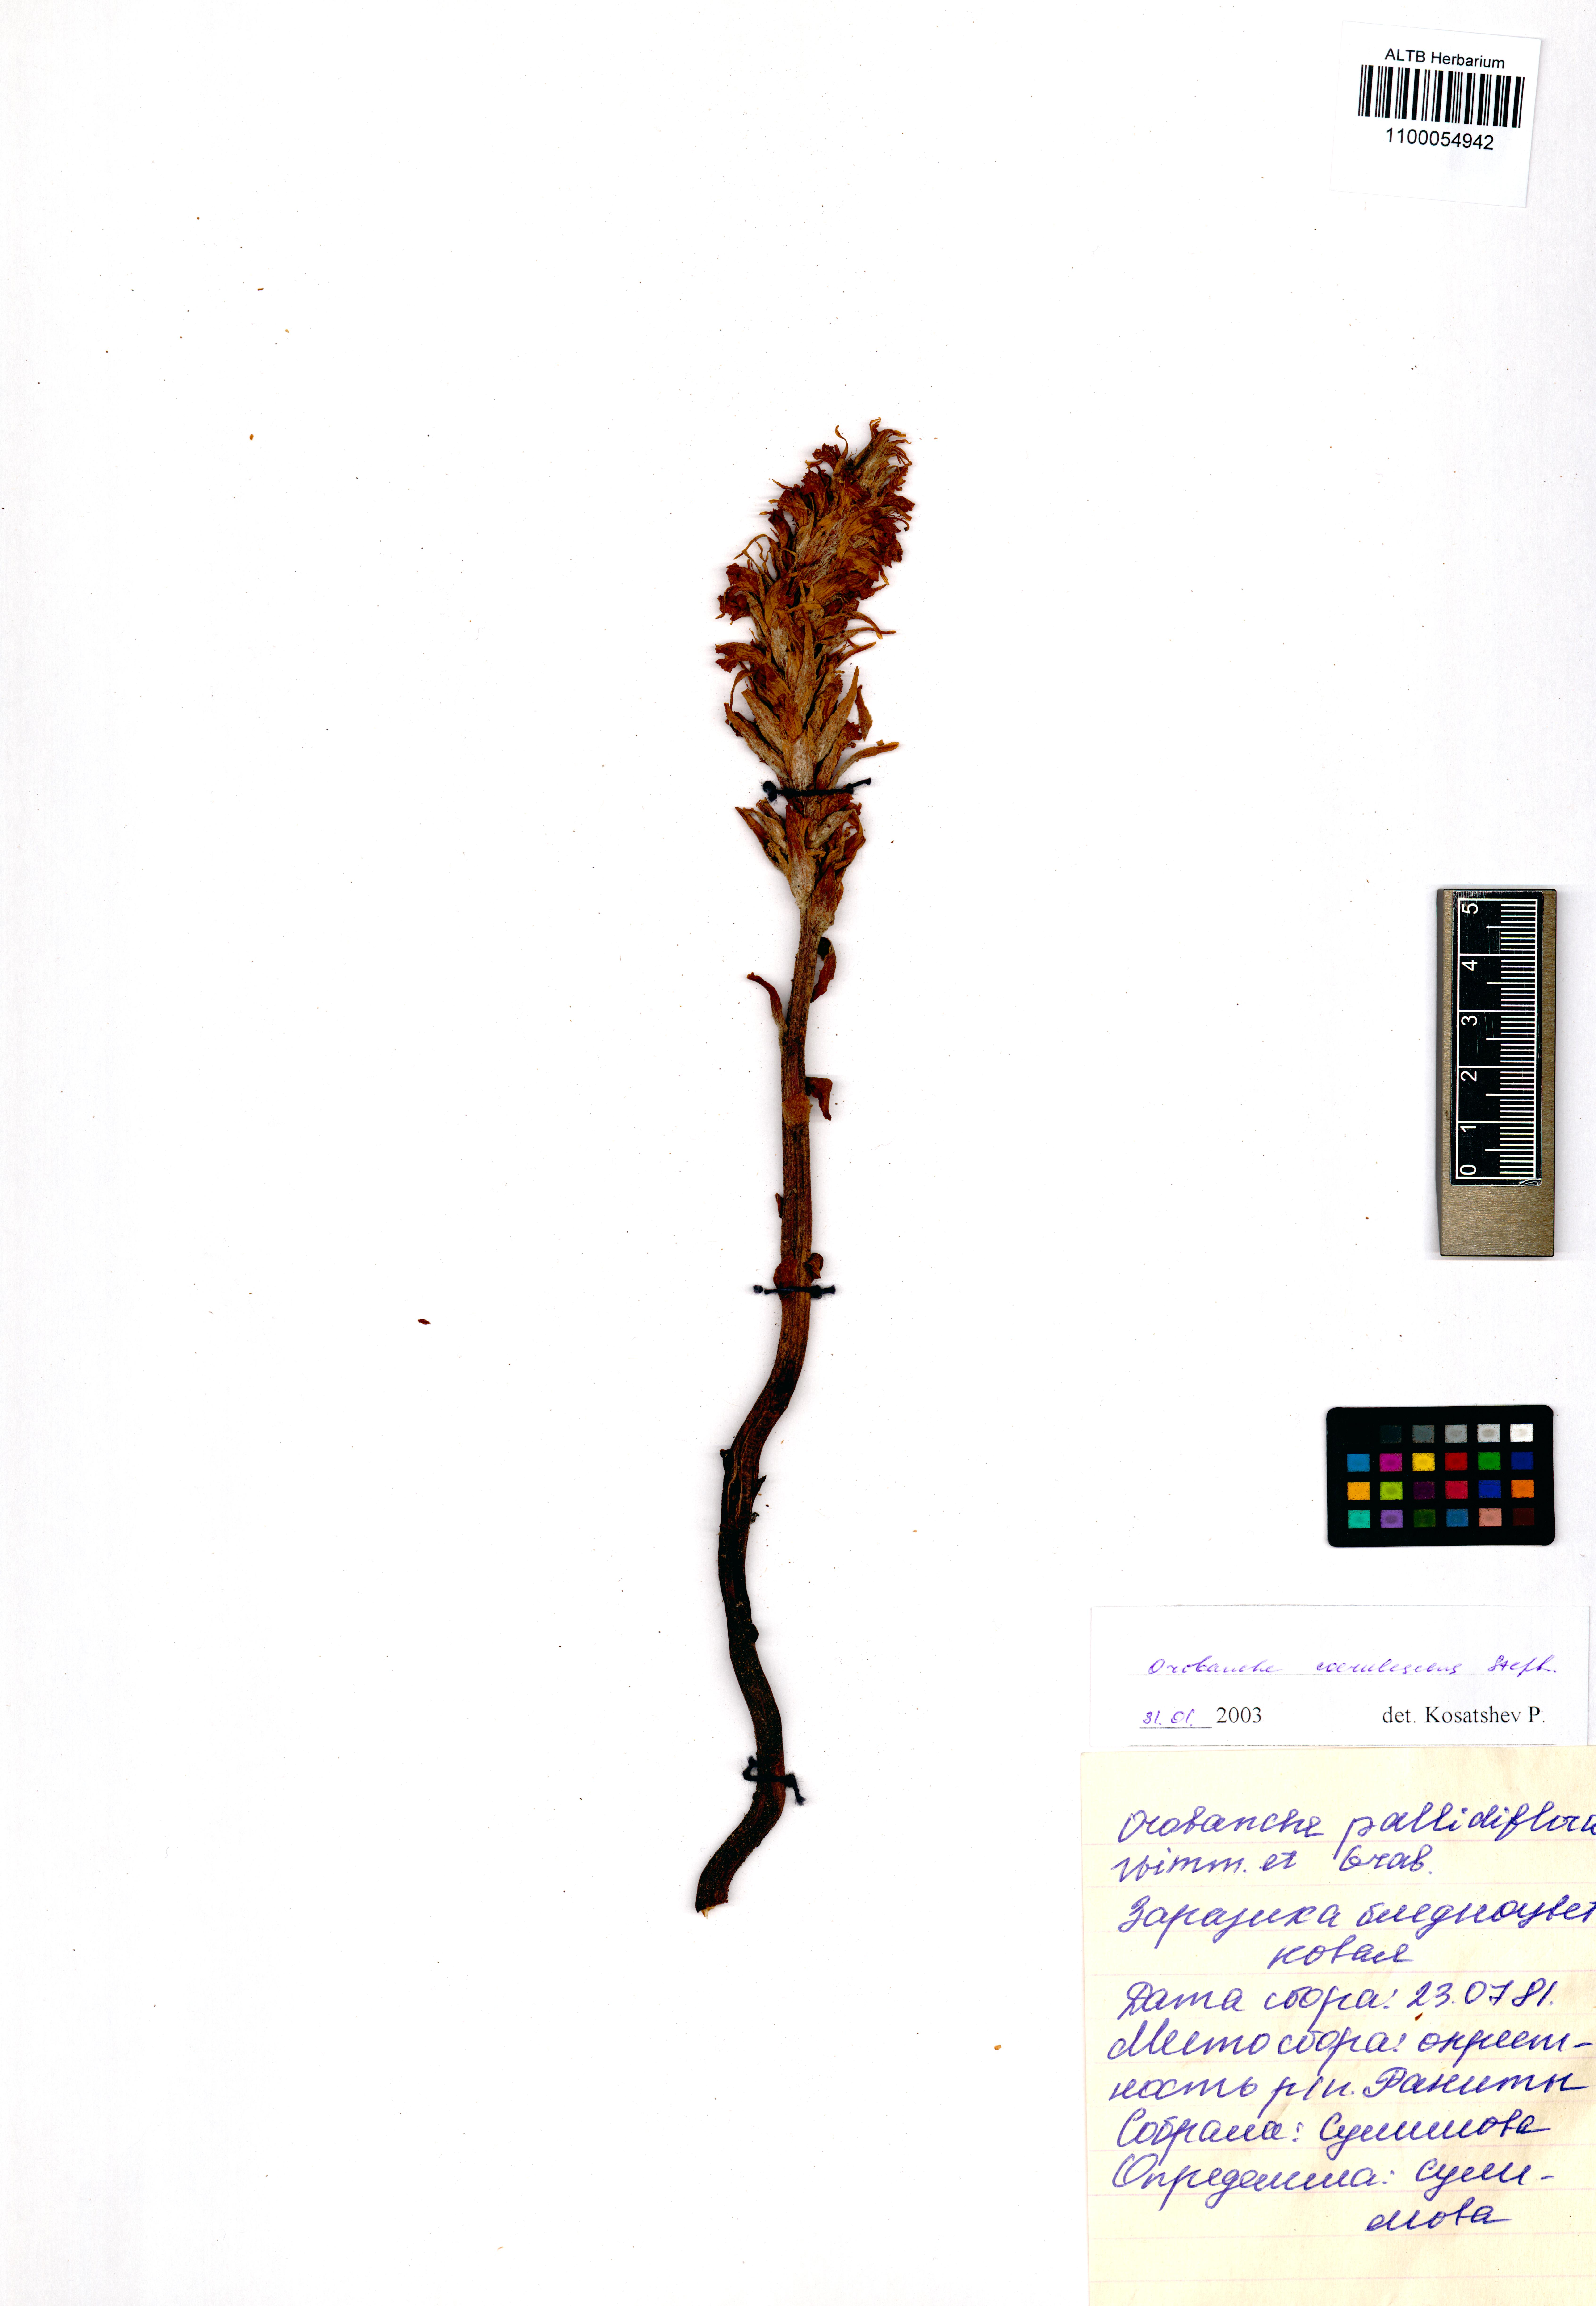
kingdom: Plantae
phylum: Tracheophyta
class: Magnoliopsida
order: Lamiales
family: Orobanchaceae
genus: Orobanche
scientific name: Orobanche coerulescens
